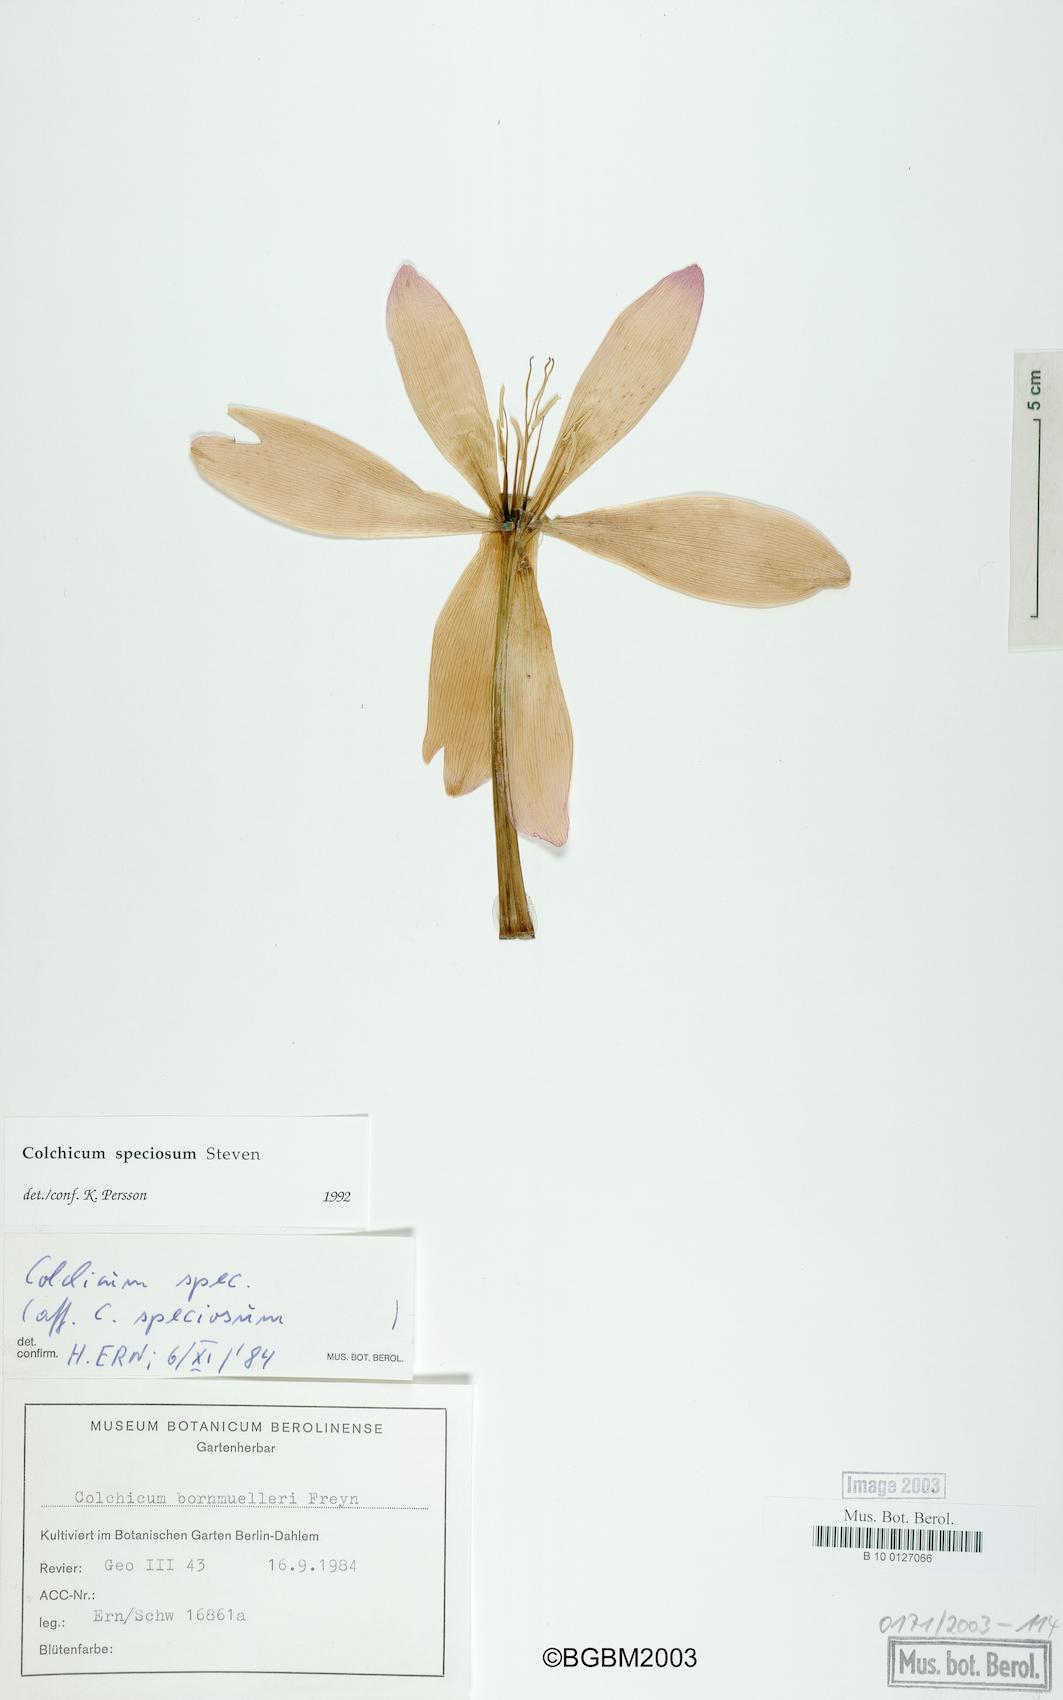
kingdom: Plantae
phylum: Tracheophyta
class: Liliopsida
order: Liliales
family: Colchicaceae
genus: Colchicum
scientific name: Colchicum speciosum
